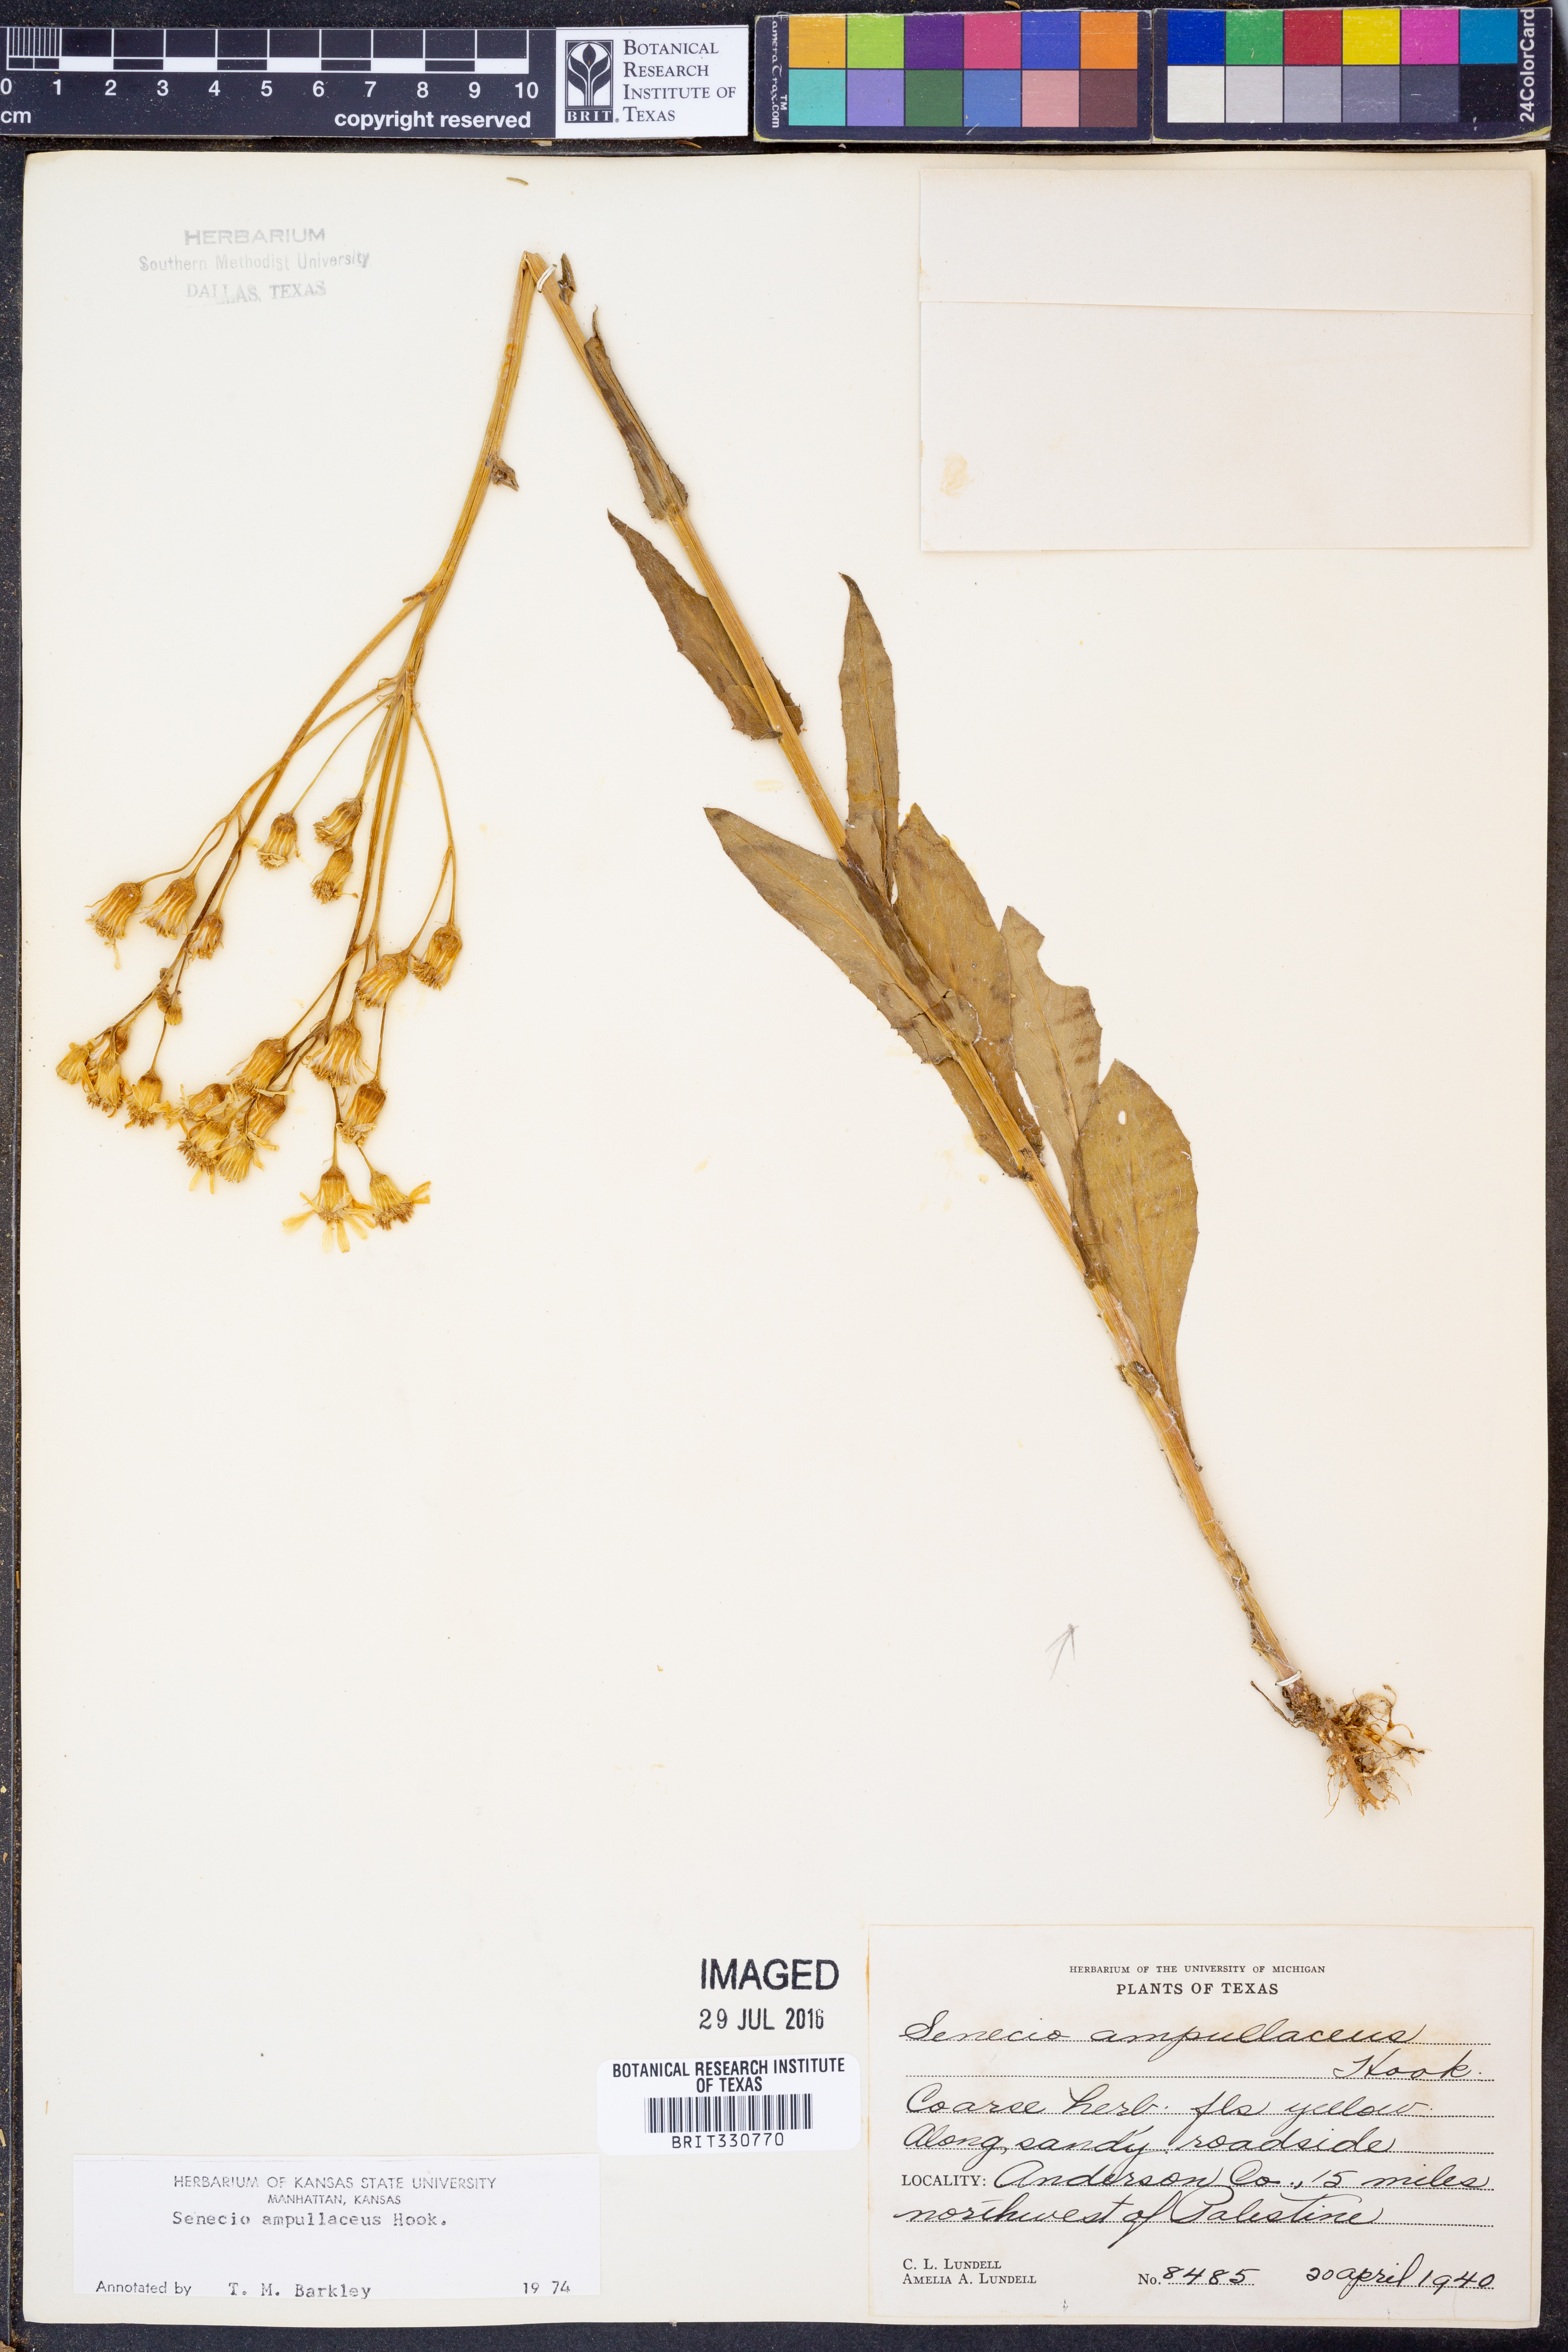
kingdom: Plantae
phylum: Tracheophyta
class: Magnoliopsida
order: Asterales
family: Asteraceae
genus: Senecio
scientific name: Senecio ampullaceus
